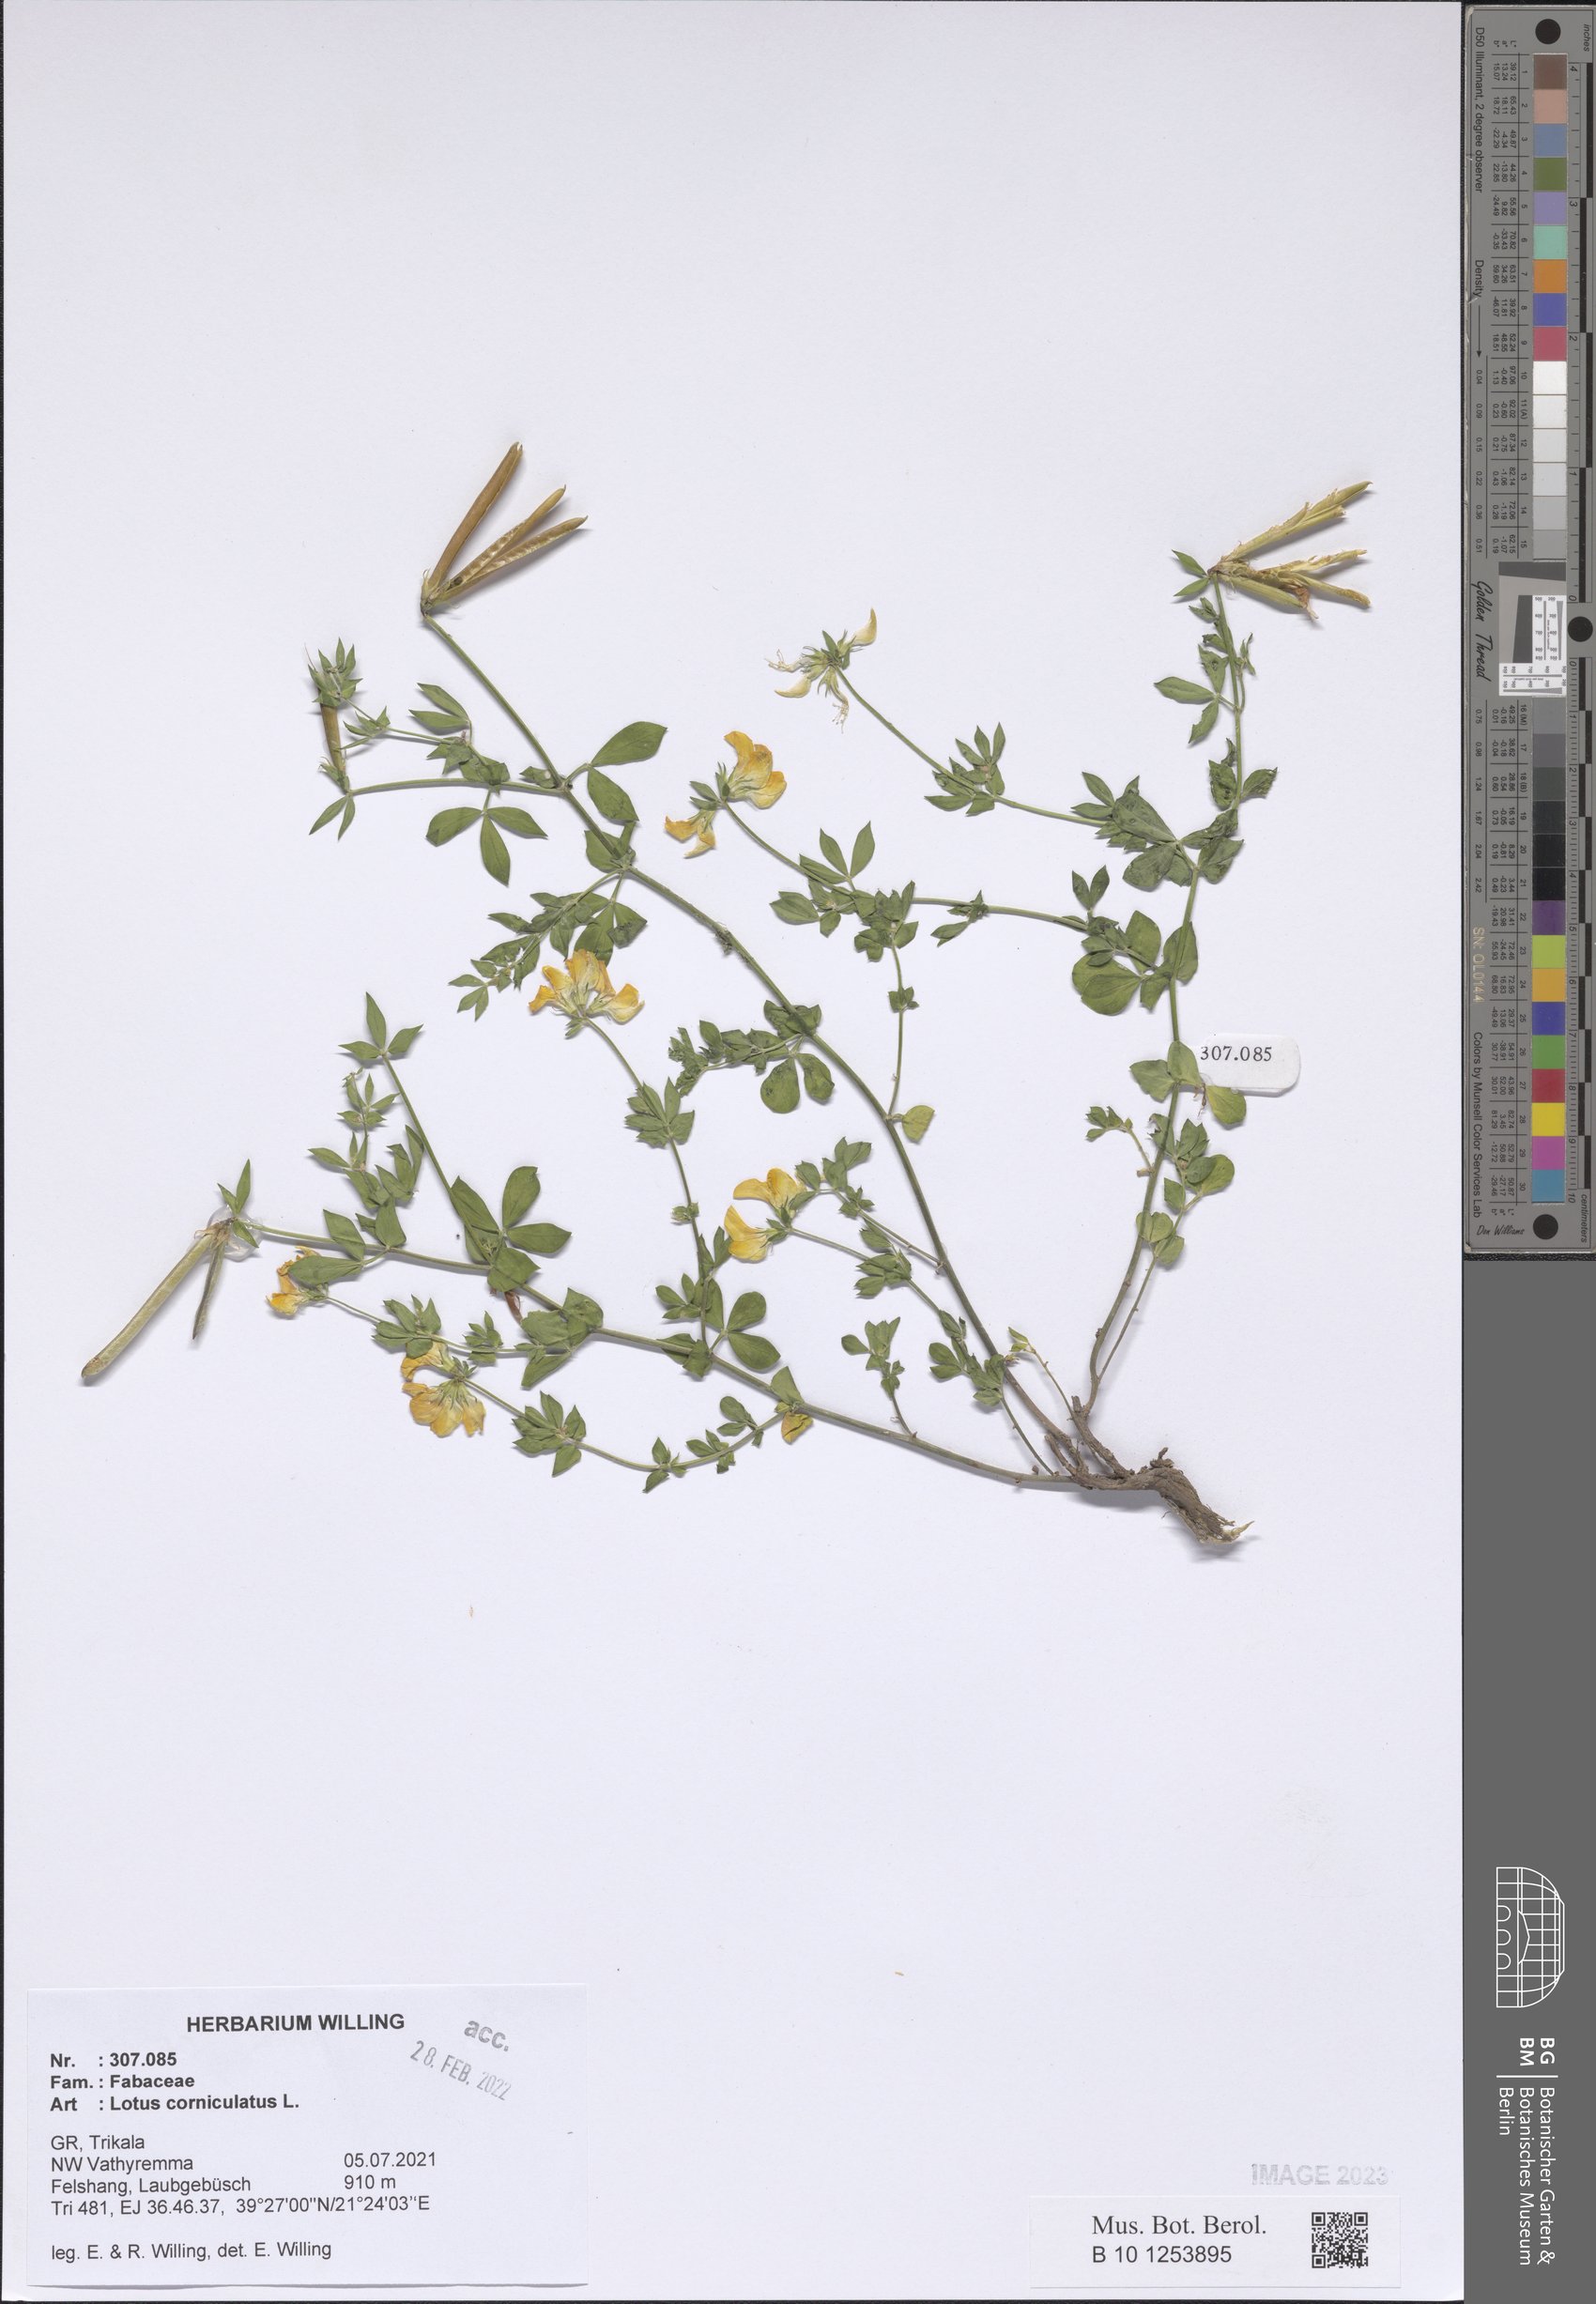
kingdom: Plantae
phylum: Tracheophyta
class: Magnoliopsida
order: Fabales
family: Fabaceae
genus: Lotus
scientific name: Lotus corniculatus
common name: Common bird's-foot-trefoil
